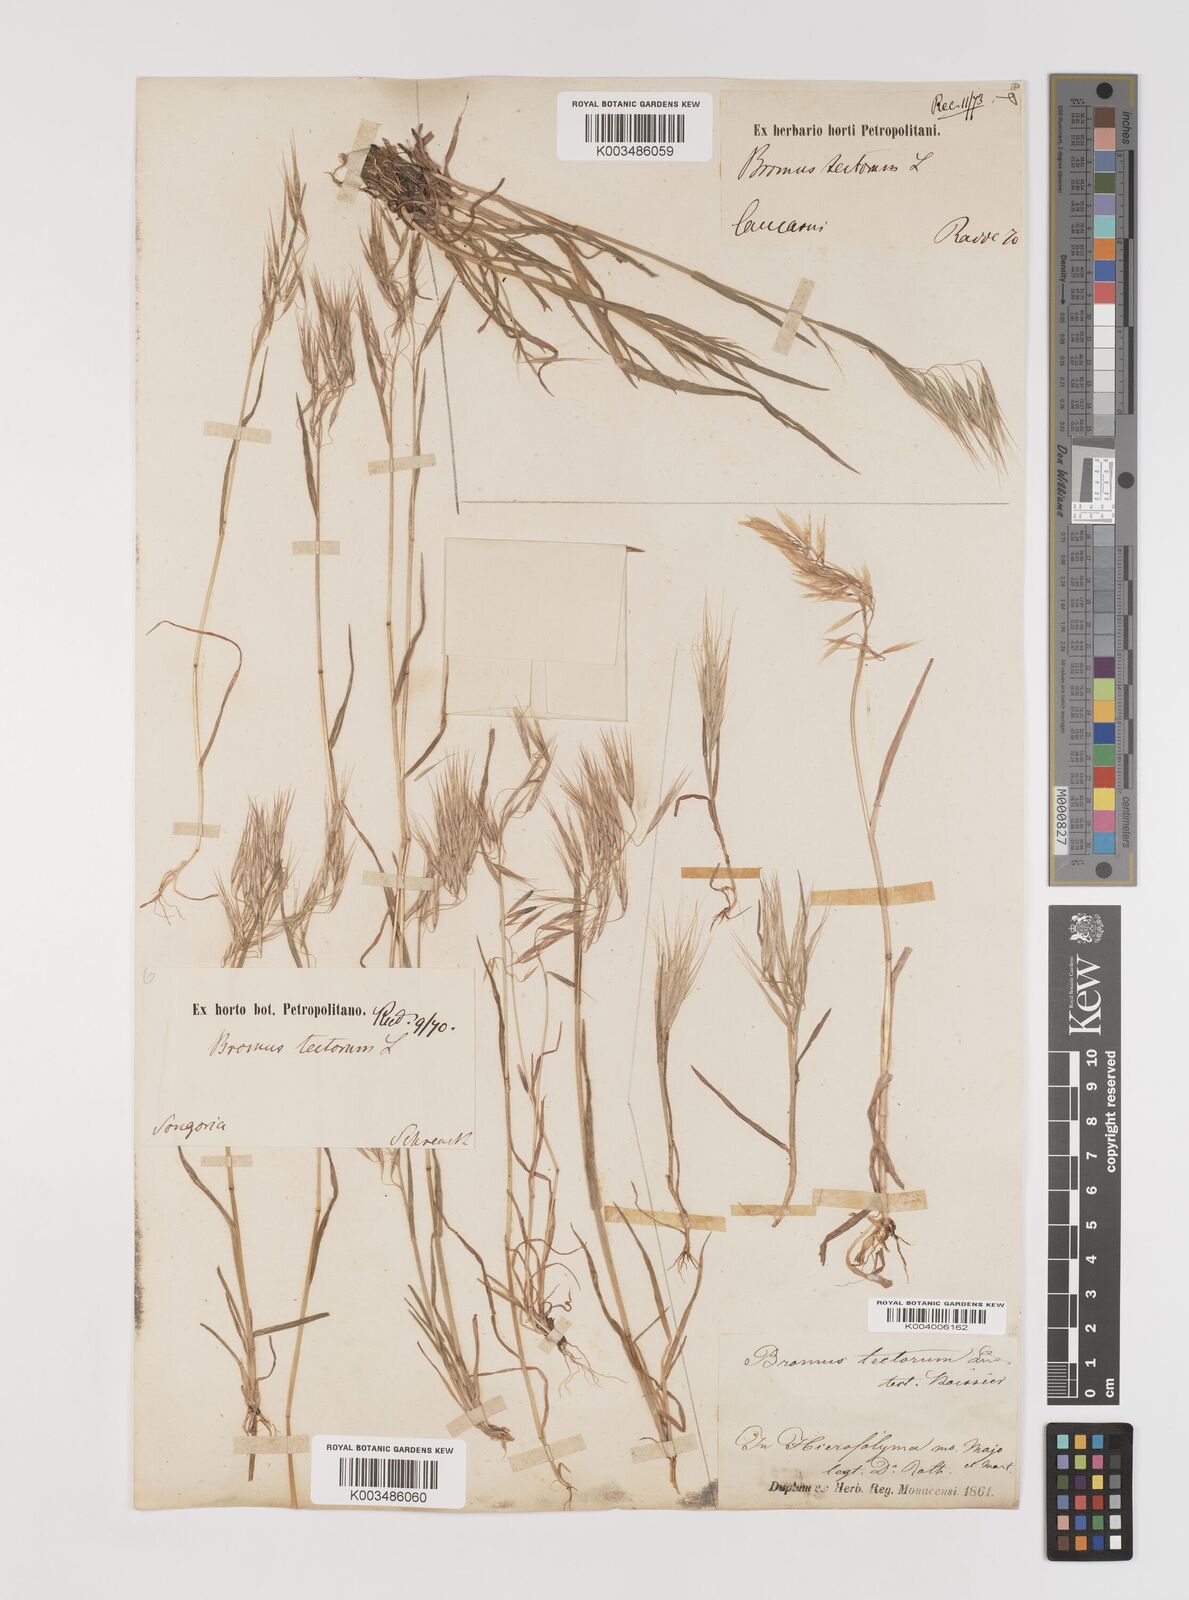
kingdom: Plantae
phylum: Tracheophyta
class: Liliopsida
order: Poales
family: Poaceae
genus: Bromus
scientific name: Bromus tectorum
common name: Cheatgrass
